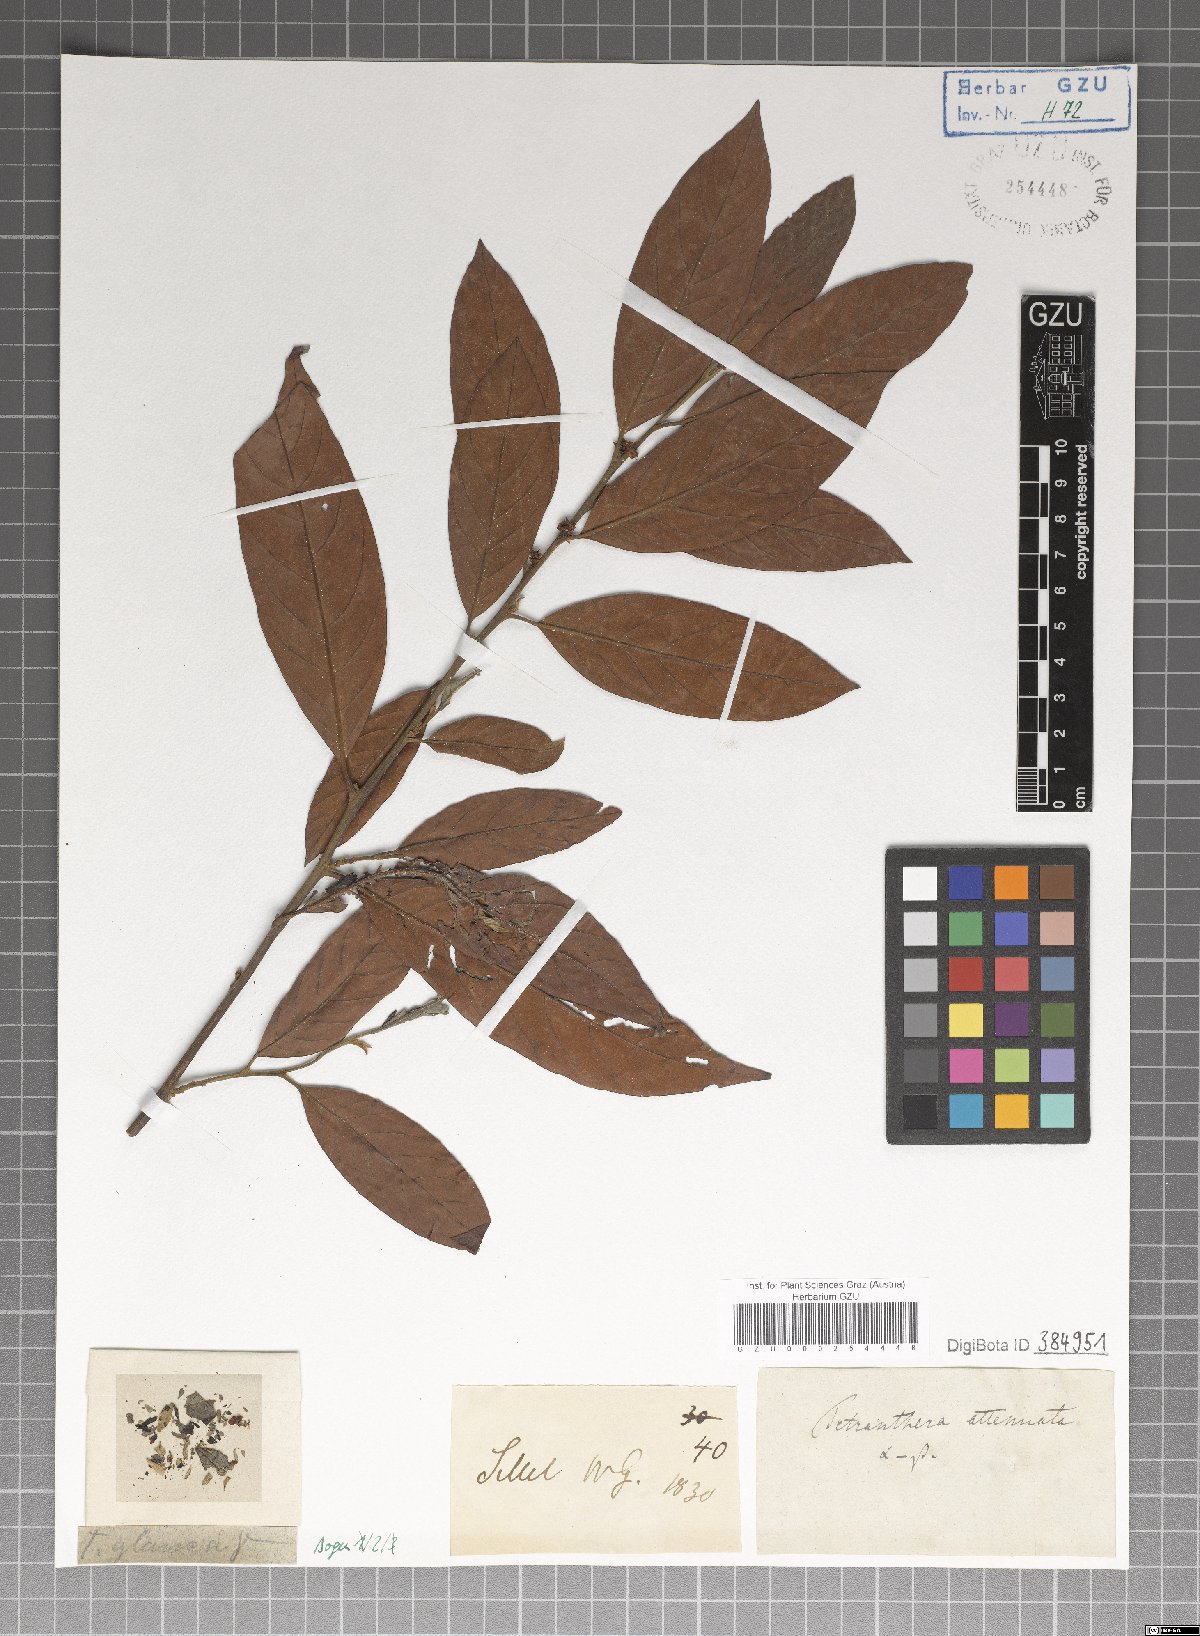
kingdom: Plantae
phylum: Tracheophyta
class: Magnoliopsida
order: Laurales
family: Lauraceae
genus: Litsea
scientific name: Litsea salicifolia
